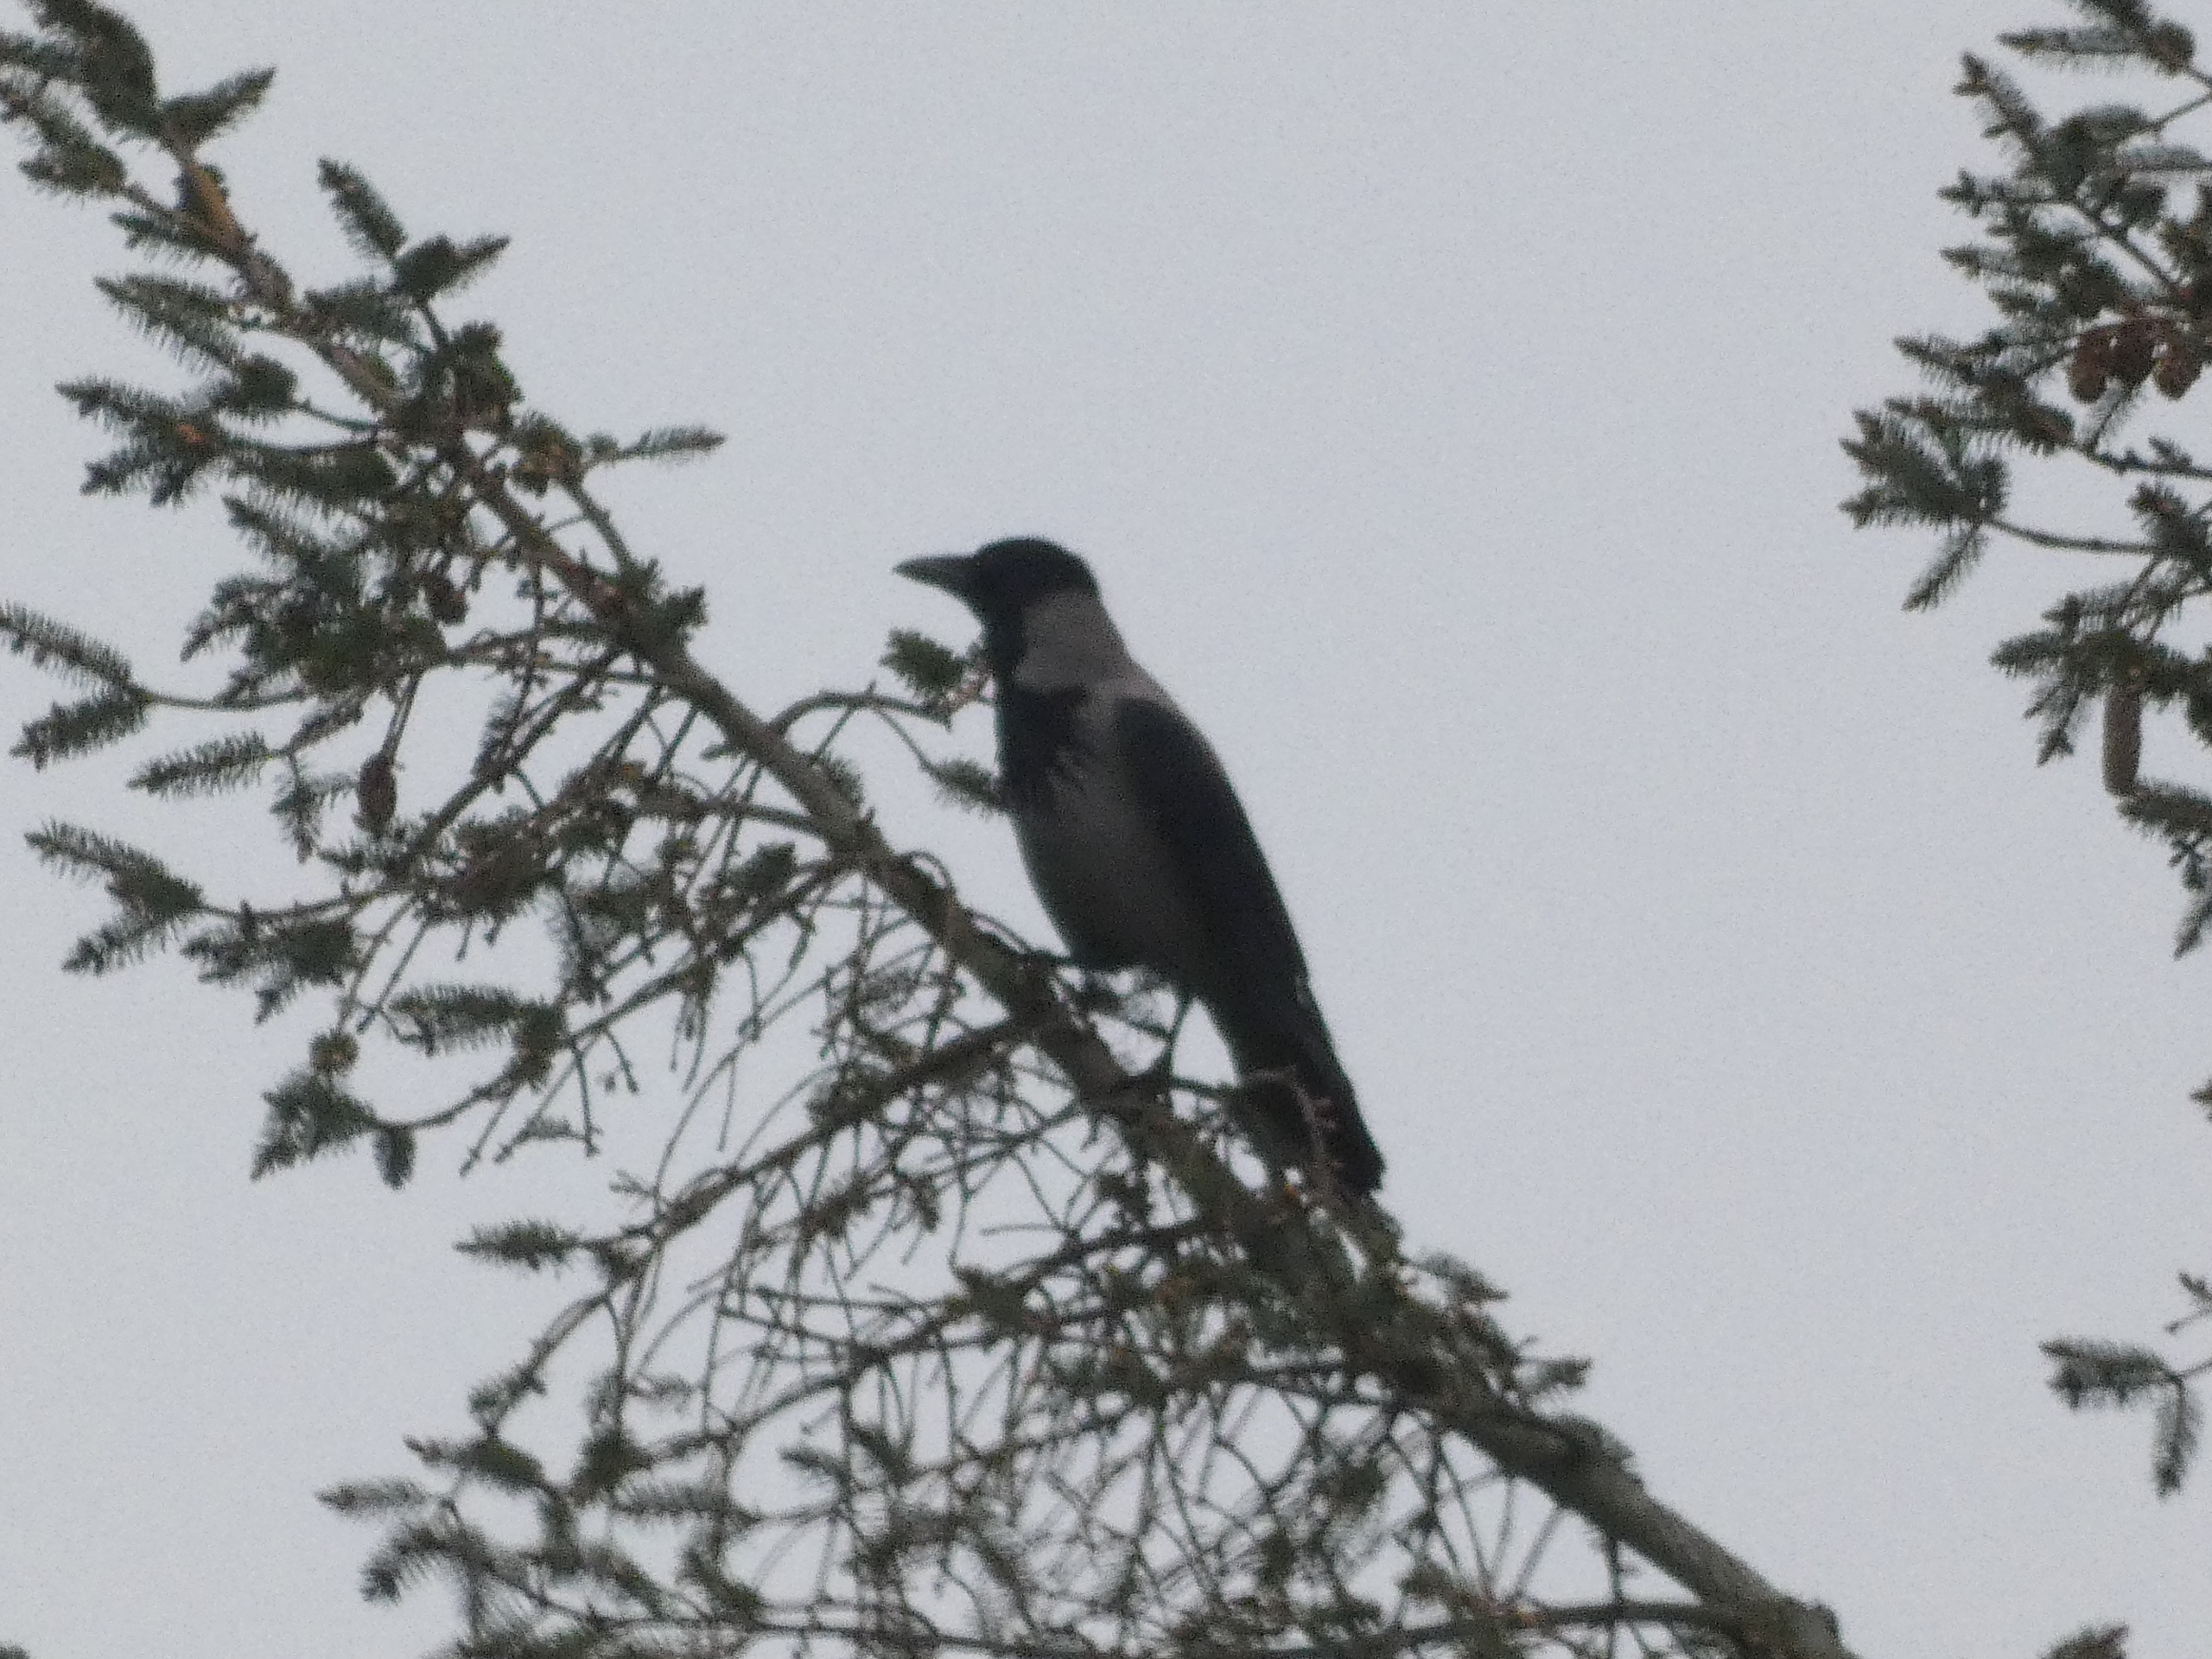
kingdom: Animalia
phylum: Chordata
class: Aves
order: Passeriformes
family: Corvidae
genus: Corvus
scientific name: Corvus cornix
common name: Gråkrage
